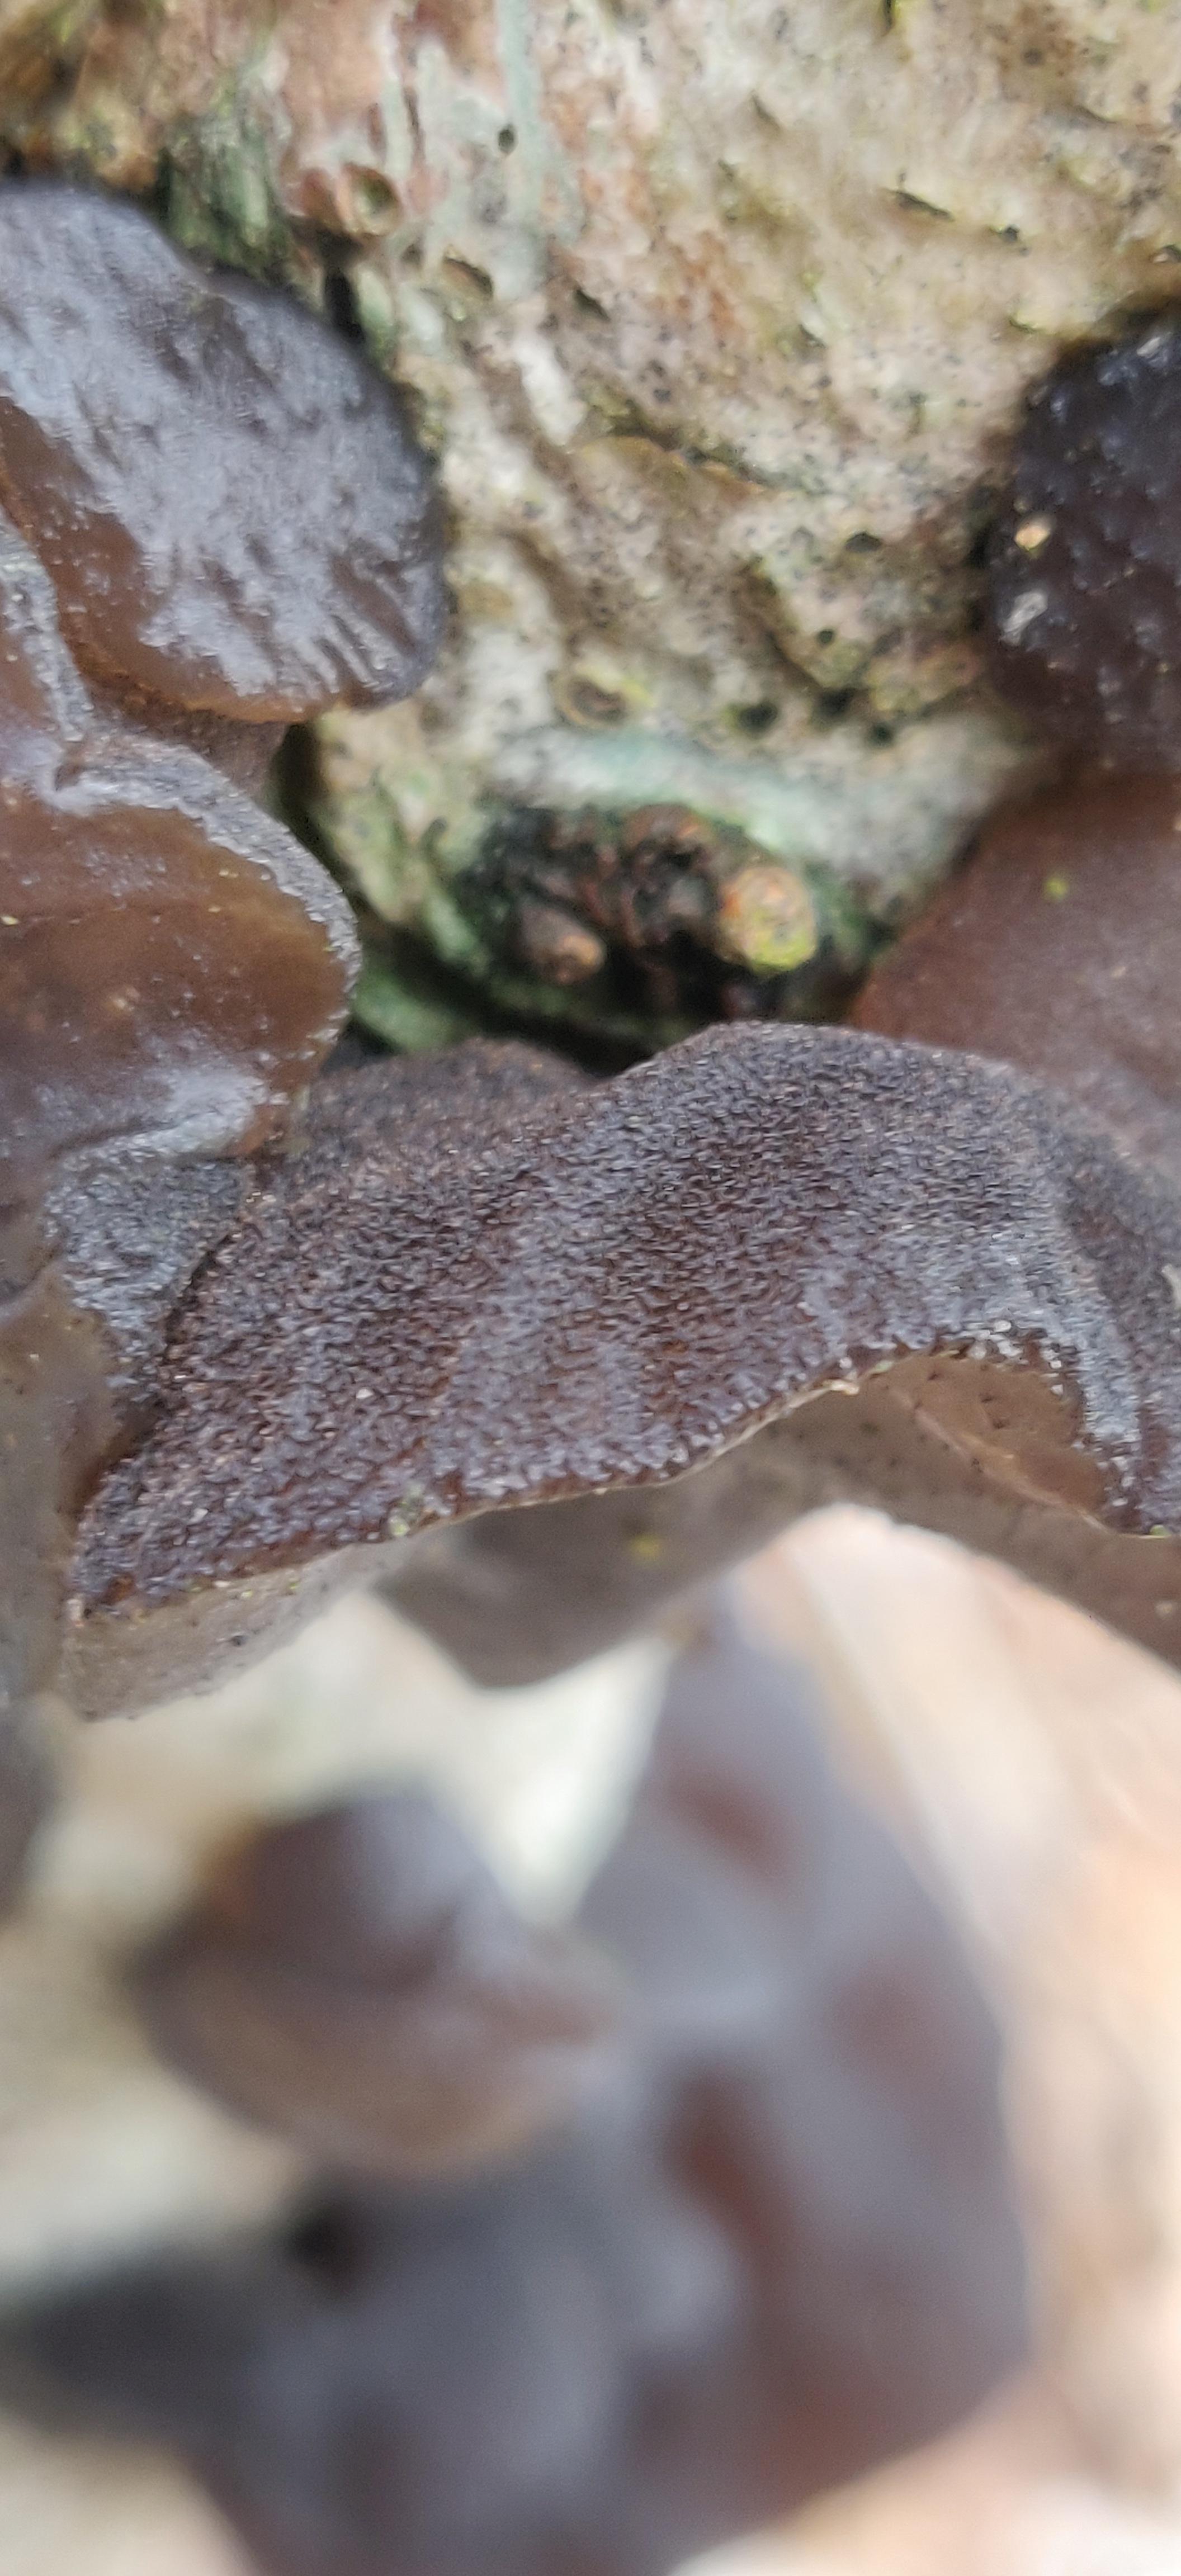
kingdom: Fungi
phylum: Basidiomycota
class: Agaricomycetes
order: Auriculariales
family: Auriculariaceae
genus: Exidia
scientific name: Exidia glandulosa
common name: ege-bævretop
